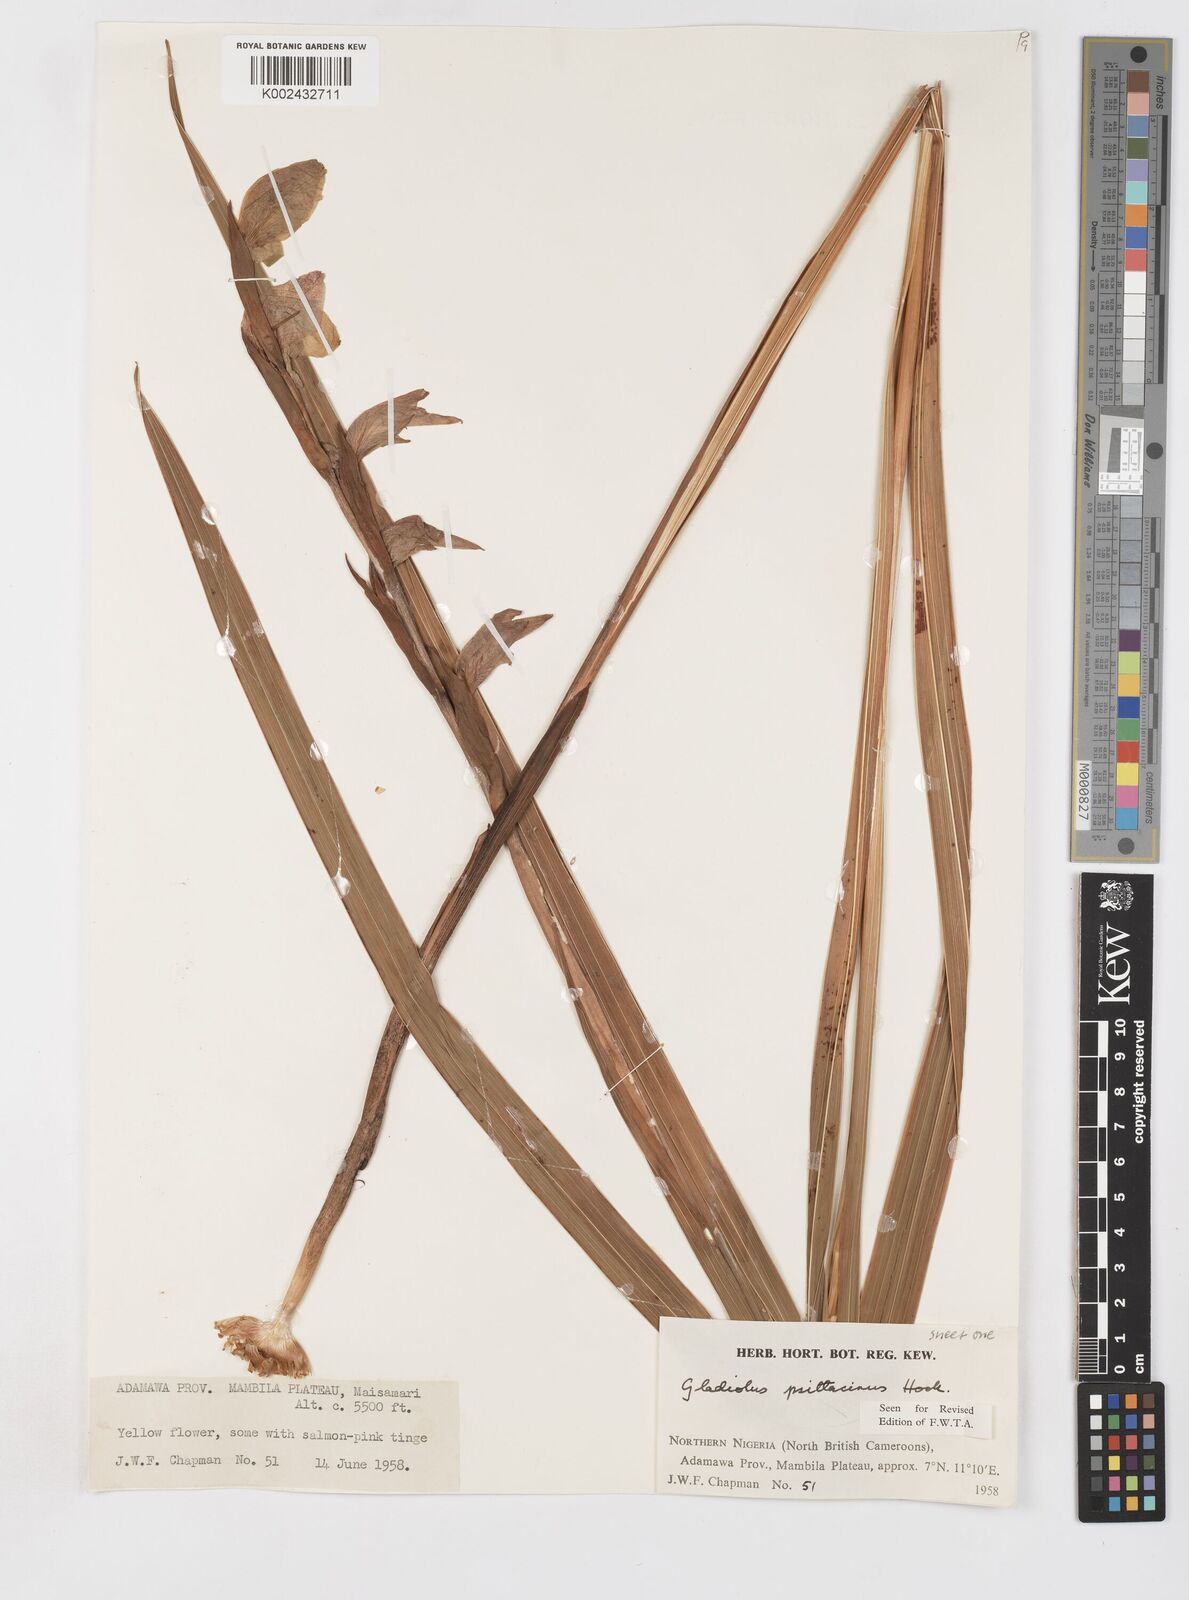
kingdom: Plantae
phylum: Tracheophyta
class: Liliopsida
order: Asparagales
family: Iridaceae
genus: Gladiolus
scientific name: Gladiolus dalenii
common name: Cornflag
